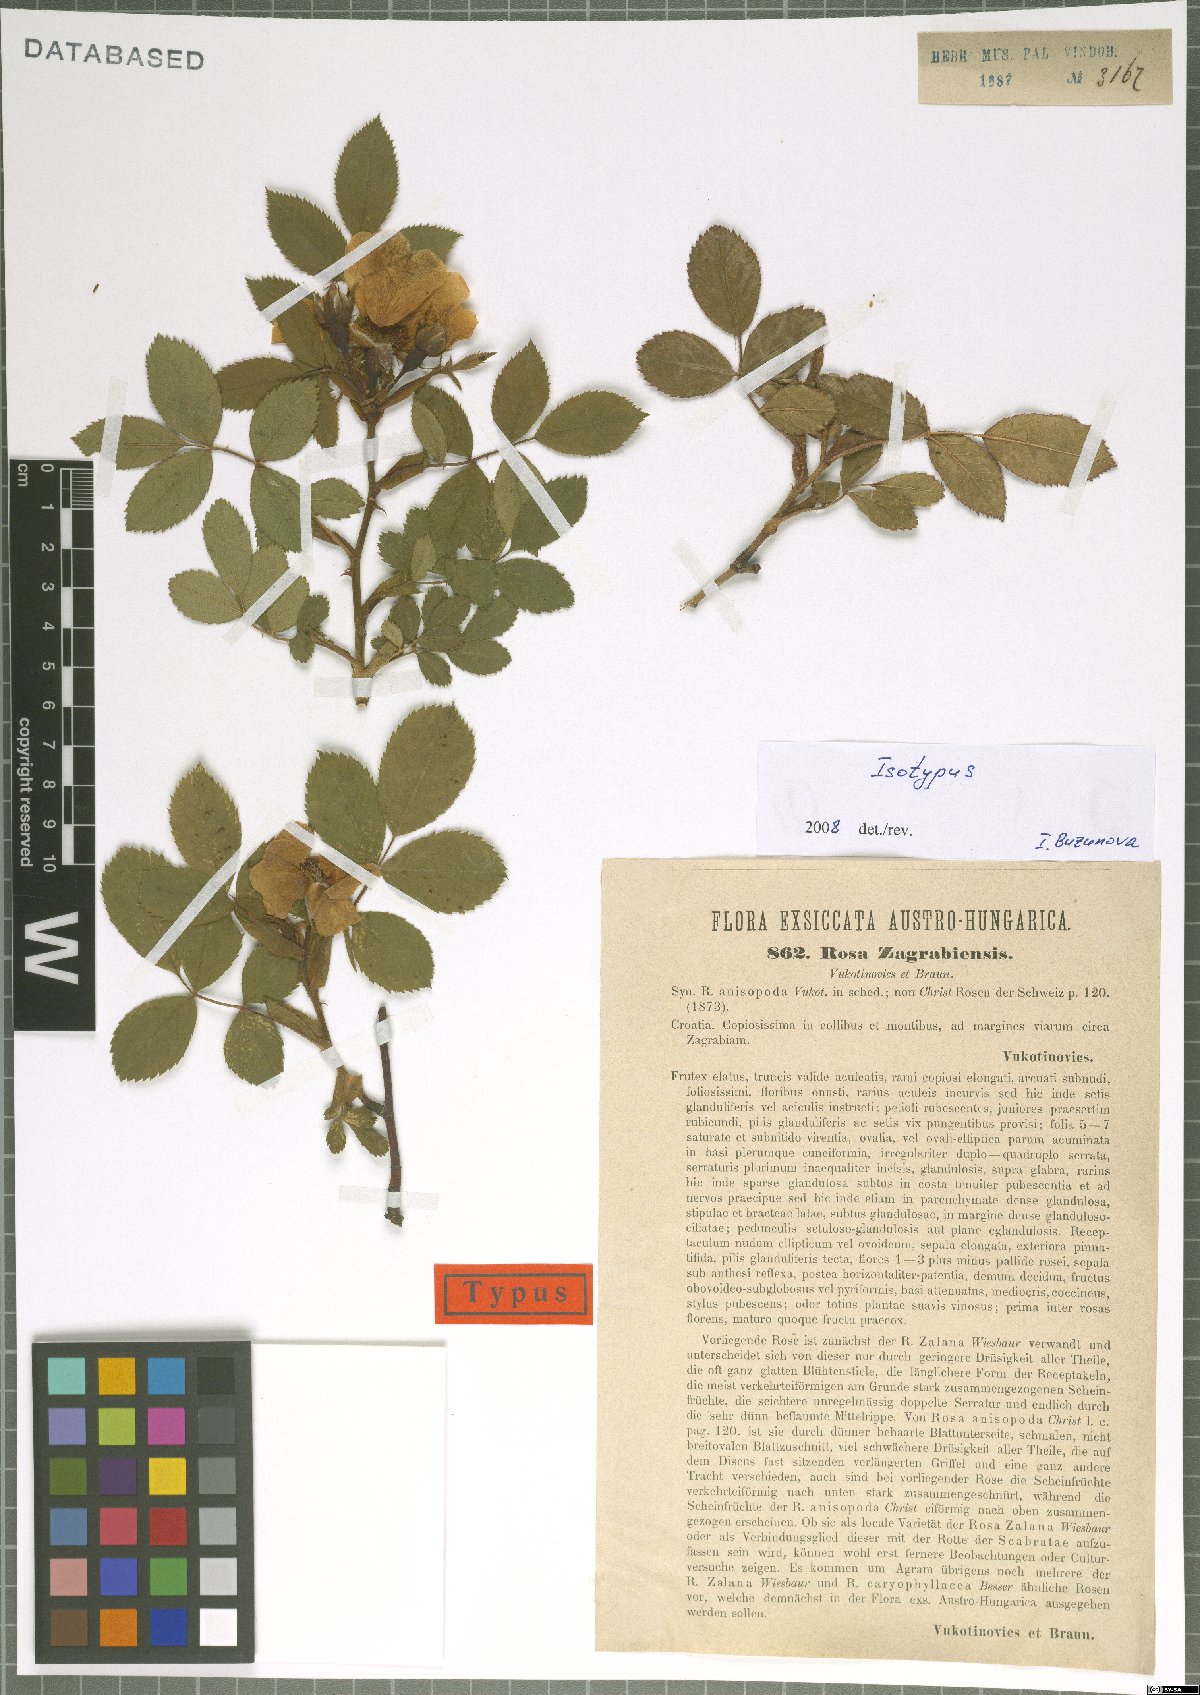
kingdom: Plantae
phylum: Tracheophyta
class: Magnoliopsida
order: Rosales
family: Rosaceae
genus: Rosa
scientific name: Rosa marginata
